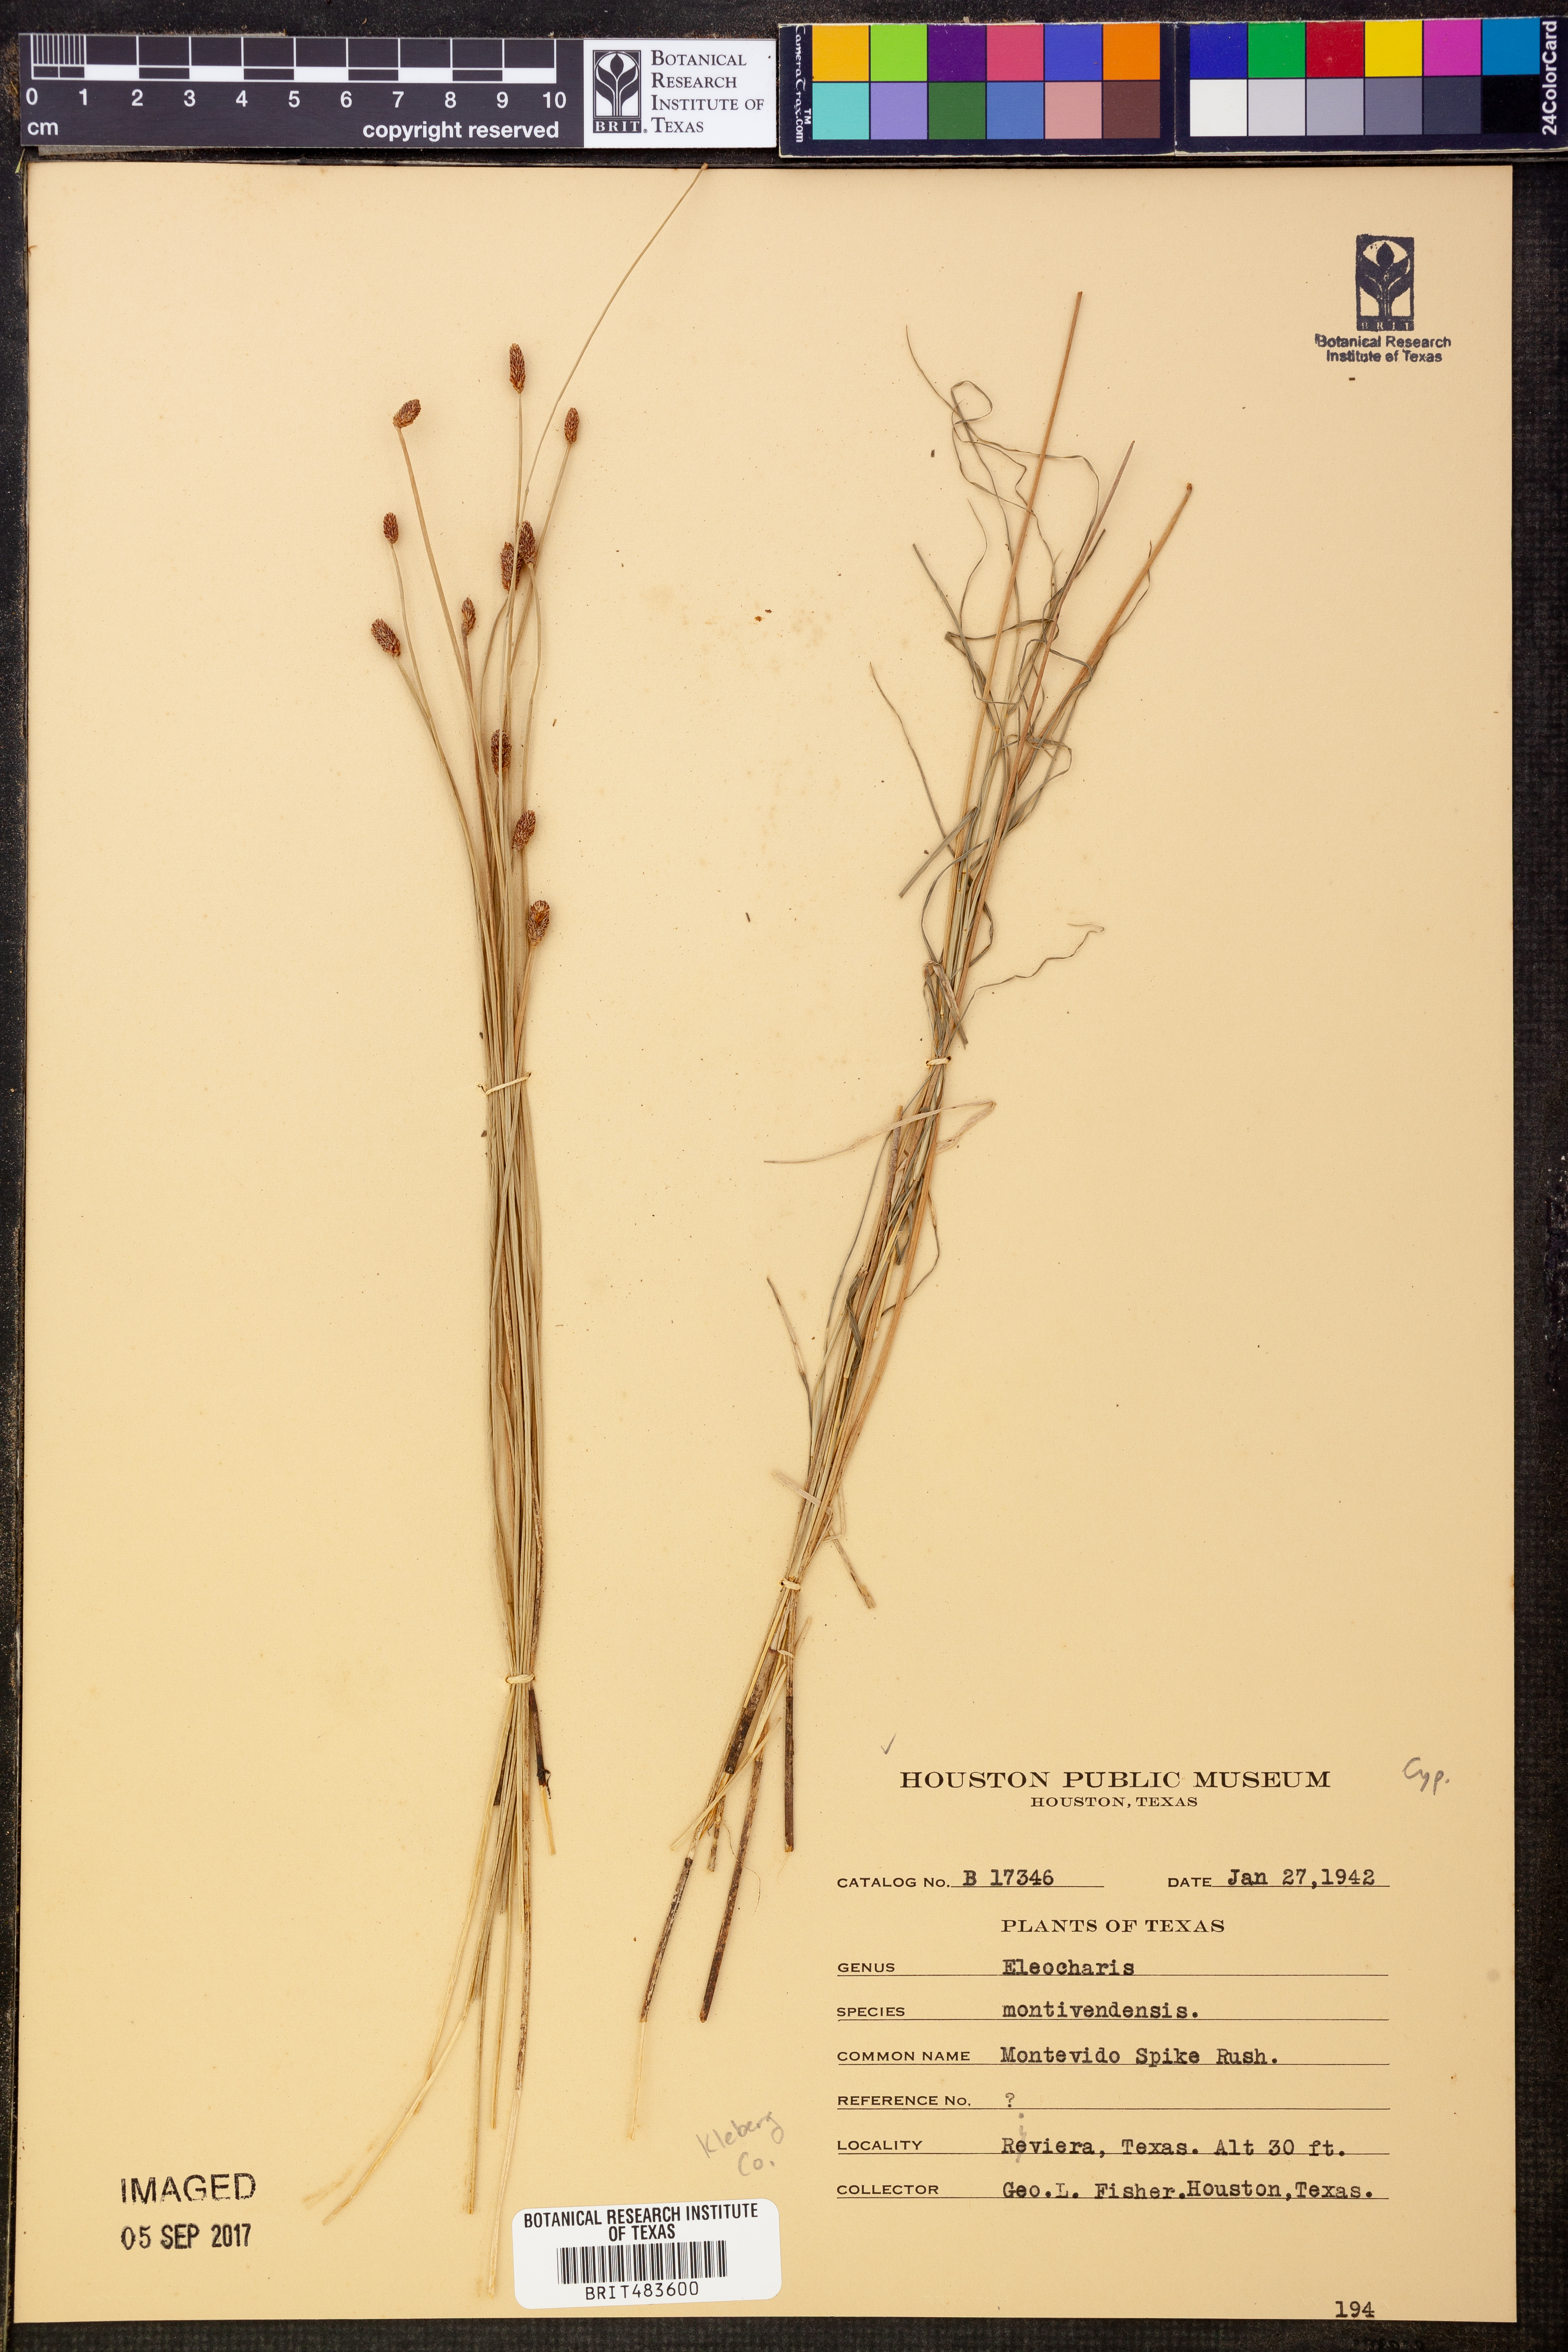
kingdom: Plantae
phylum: Tracheophyta
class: Liliopsida
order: Poales
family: Cyperaceae
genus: Eleocharis
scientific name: Eleocharis montevidensis
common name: Sand spike-rush
